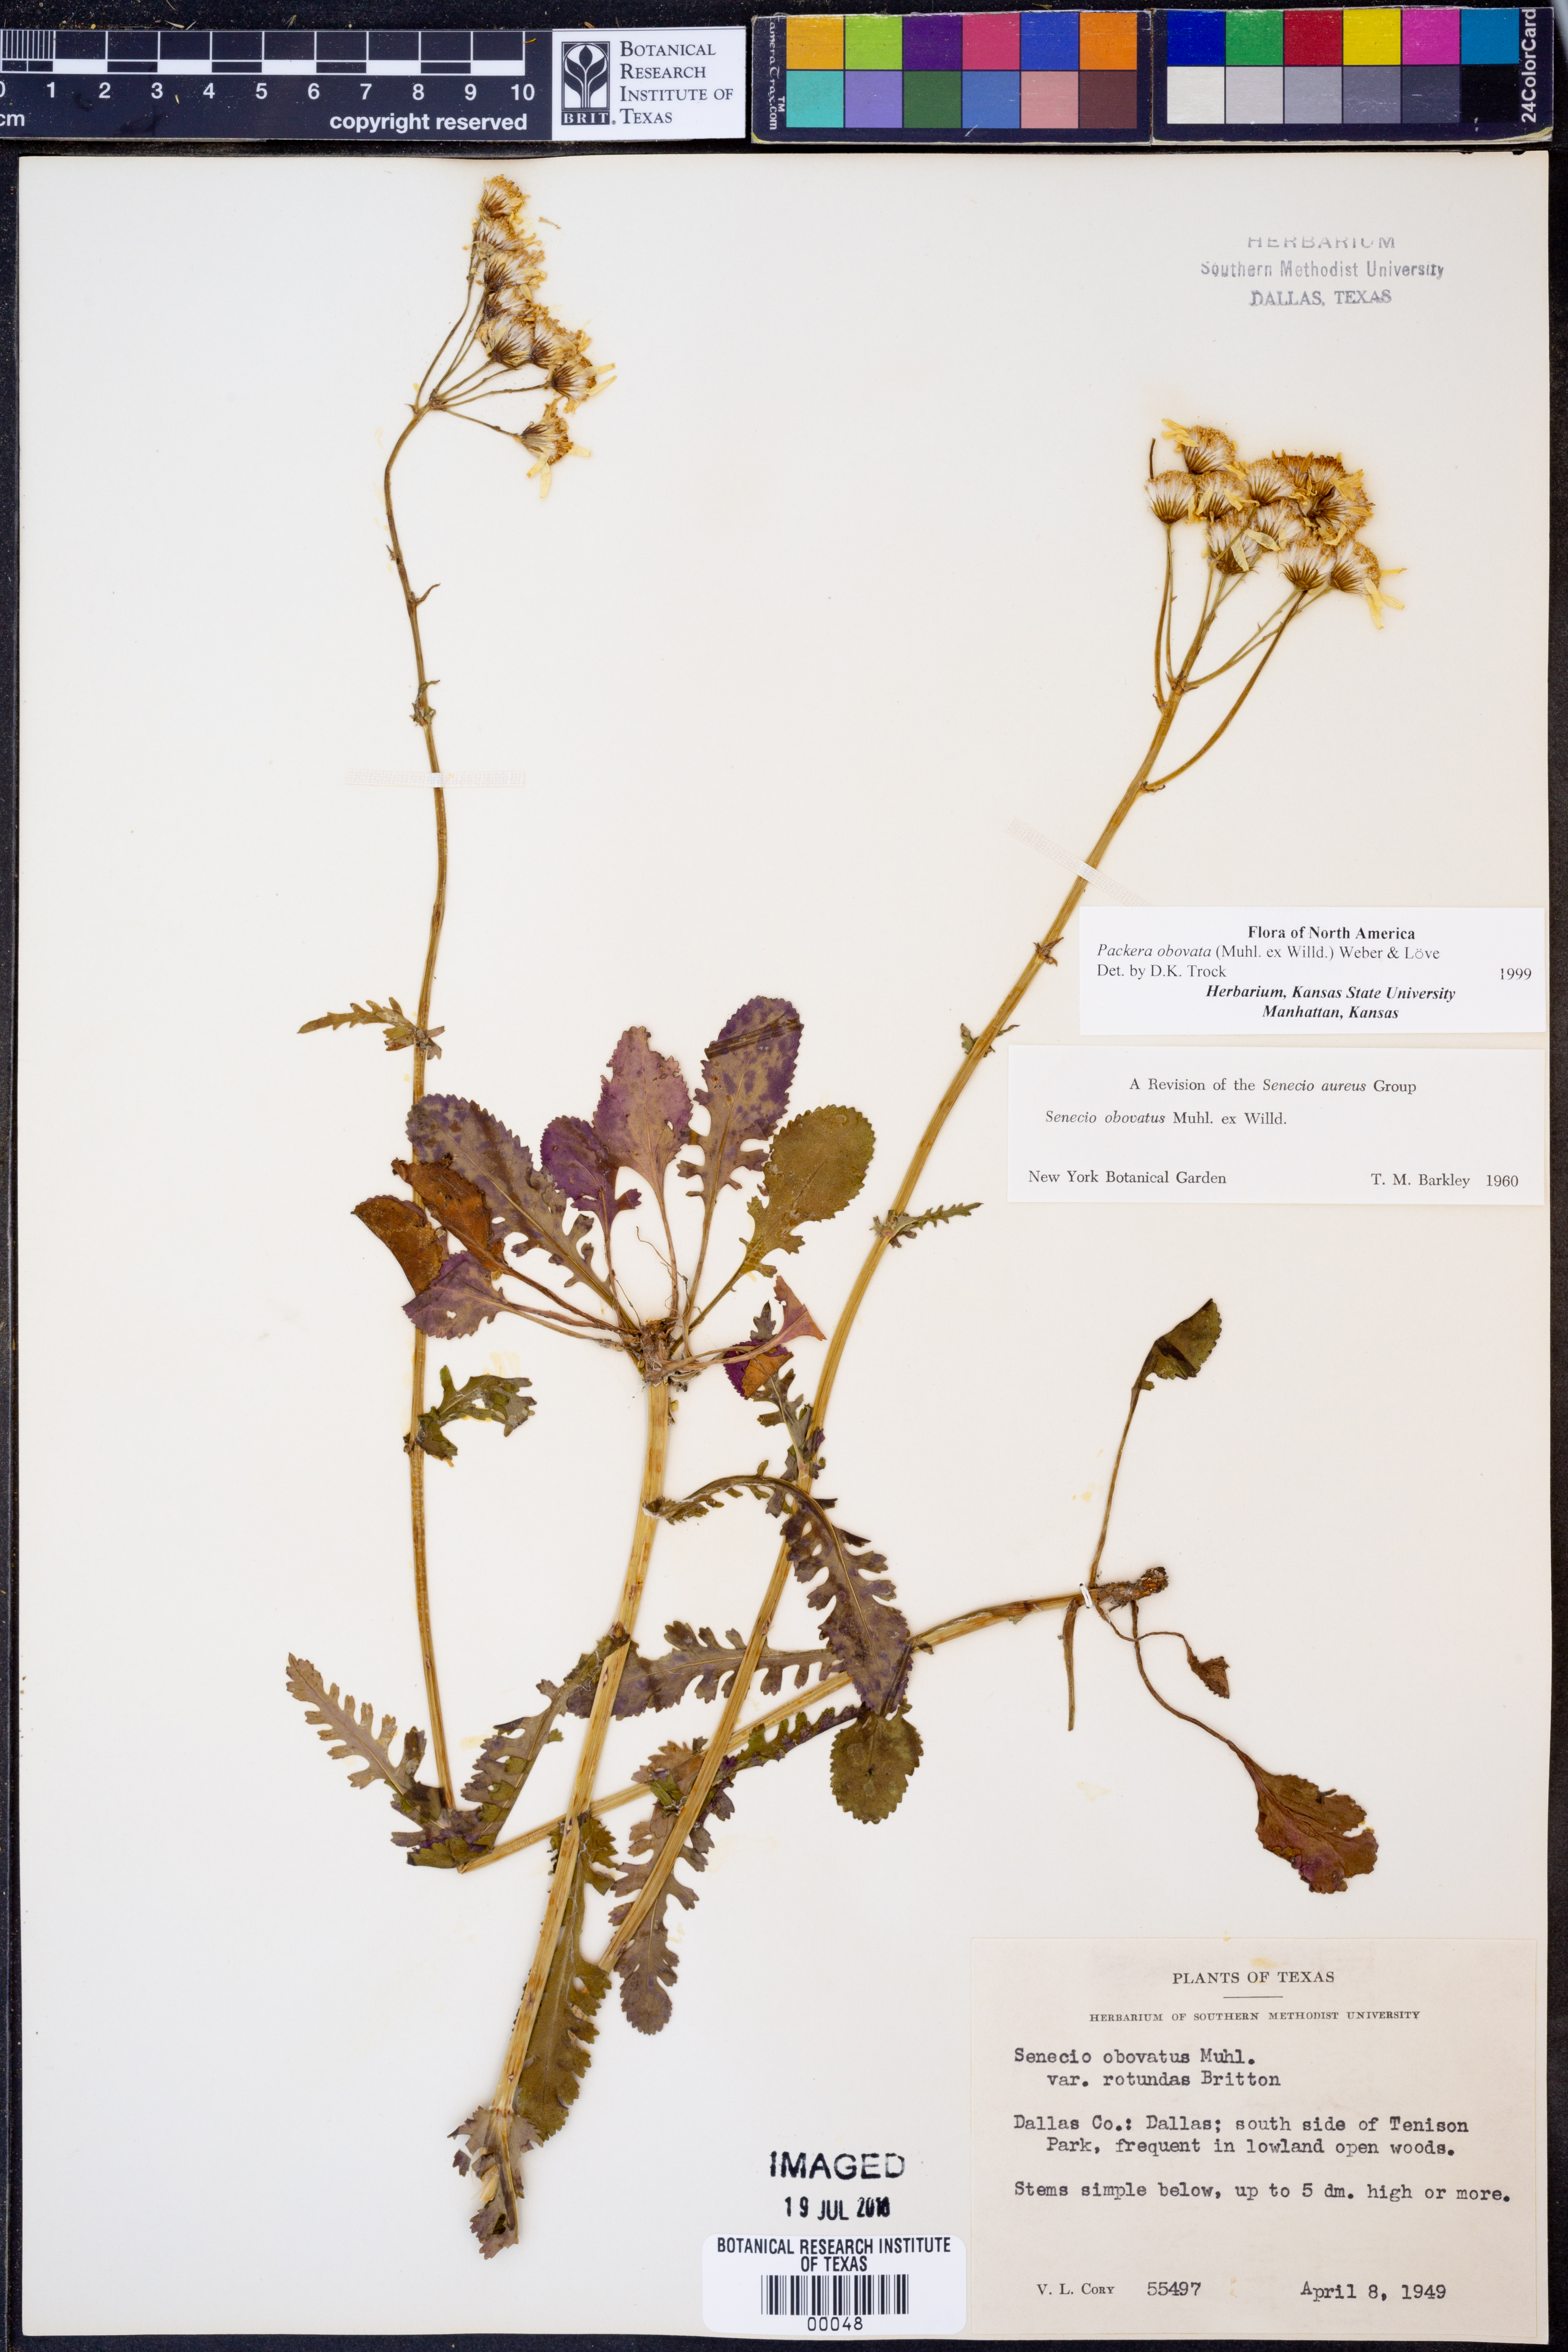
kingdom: Plantae
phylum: Tracheophyta
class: Magnoliopsida
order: Asterales
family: Asteraceae
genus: Packera
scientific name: Packera obovata
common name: Round-leaf ragwort
